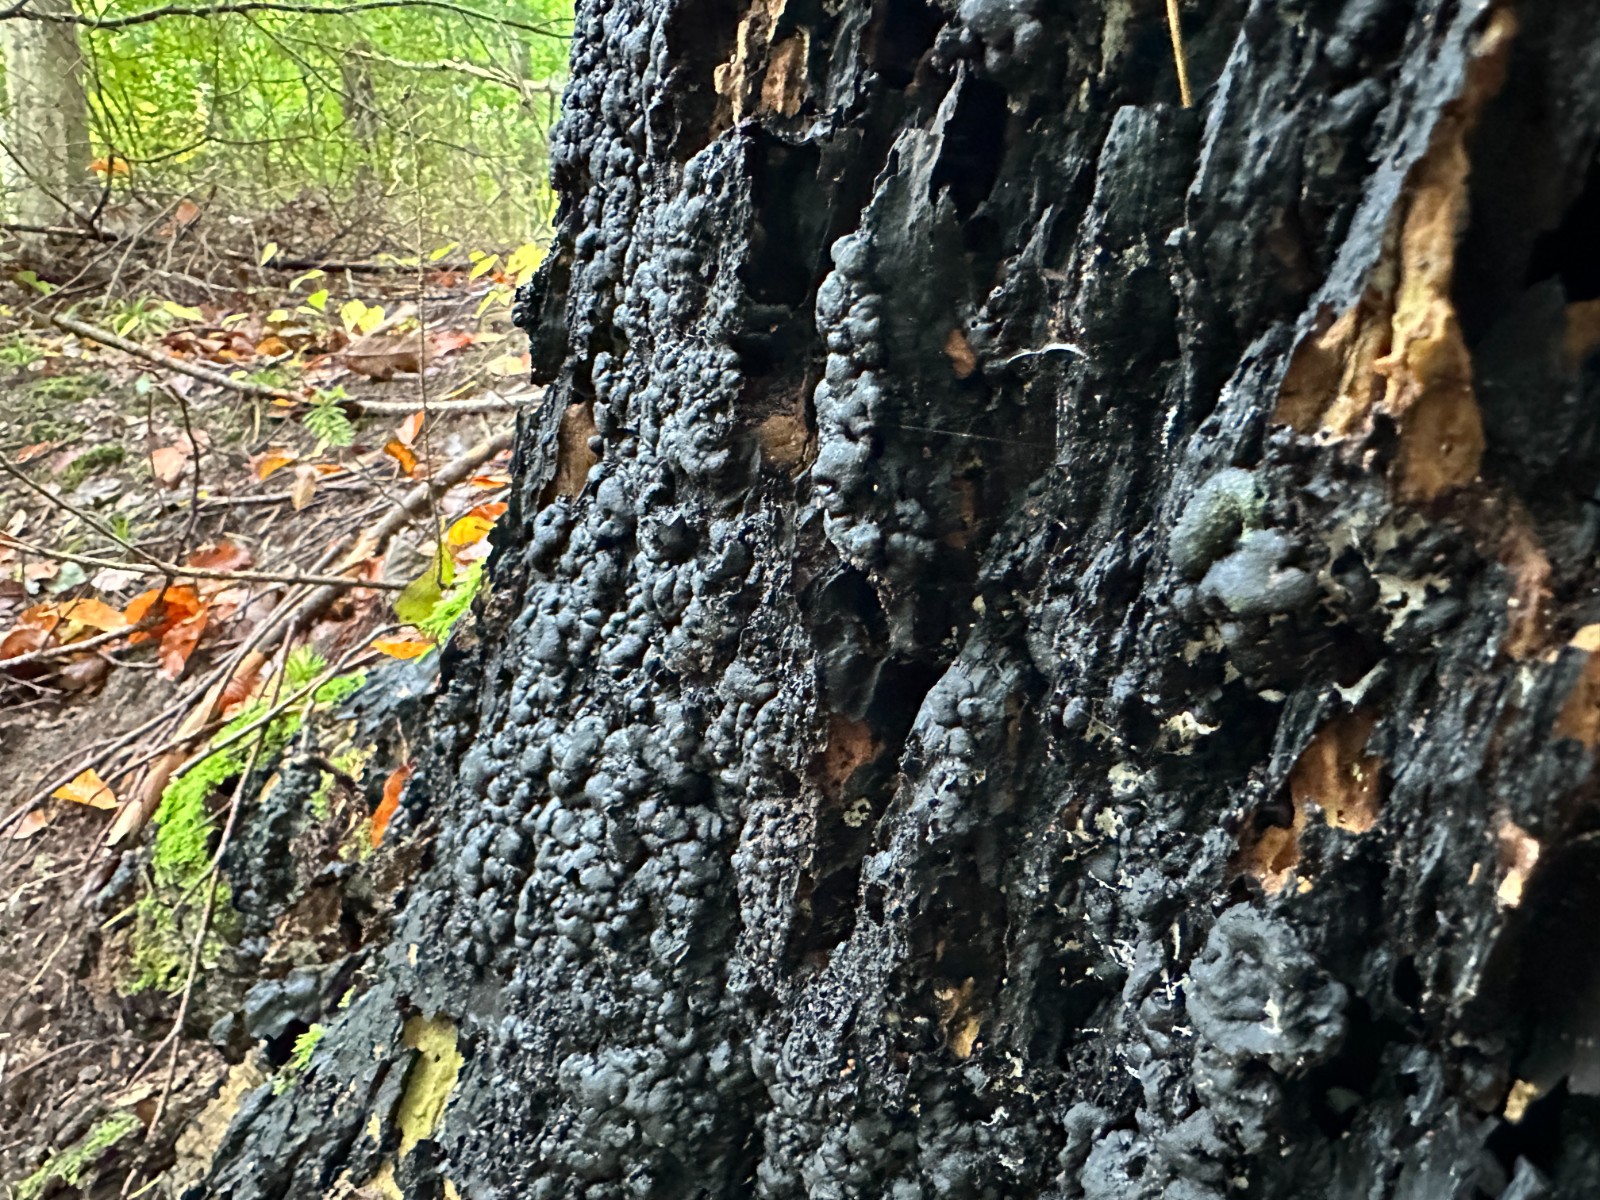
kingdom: Fungi
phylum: Ascomycota
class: Sordariomycetes
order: Xylariales
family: Xylariaceae
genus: Kretzschmaria
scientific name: Kretzschmaria deusta
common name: stor kulsvamp
